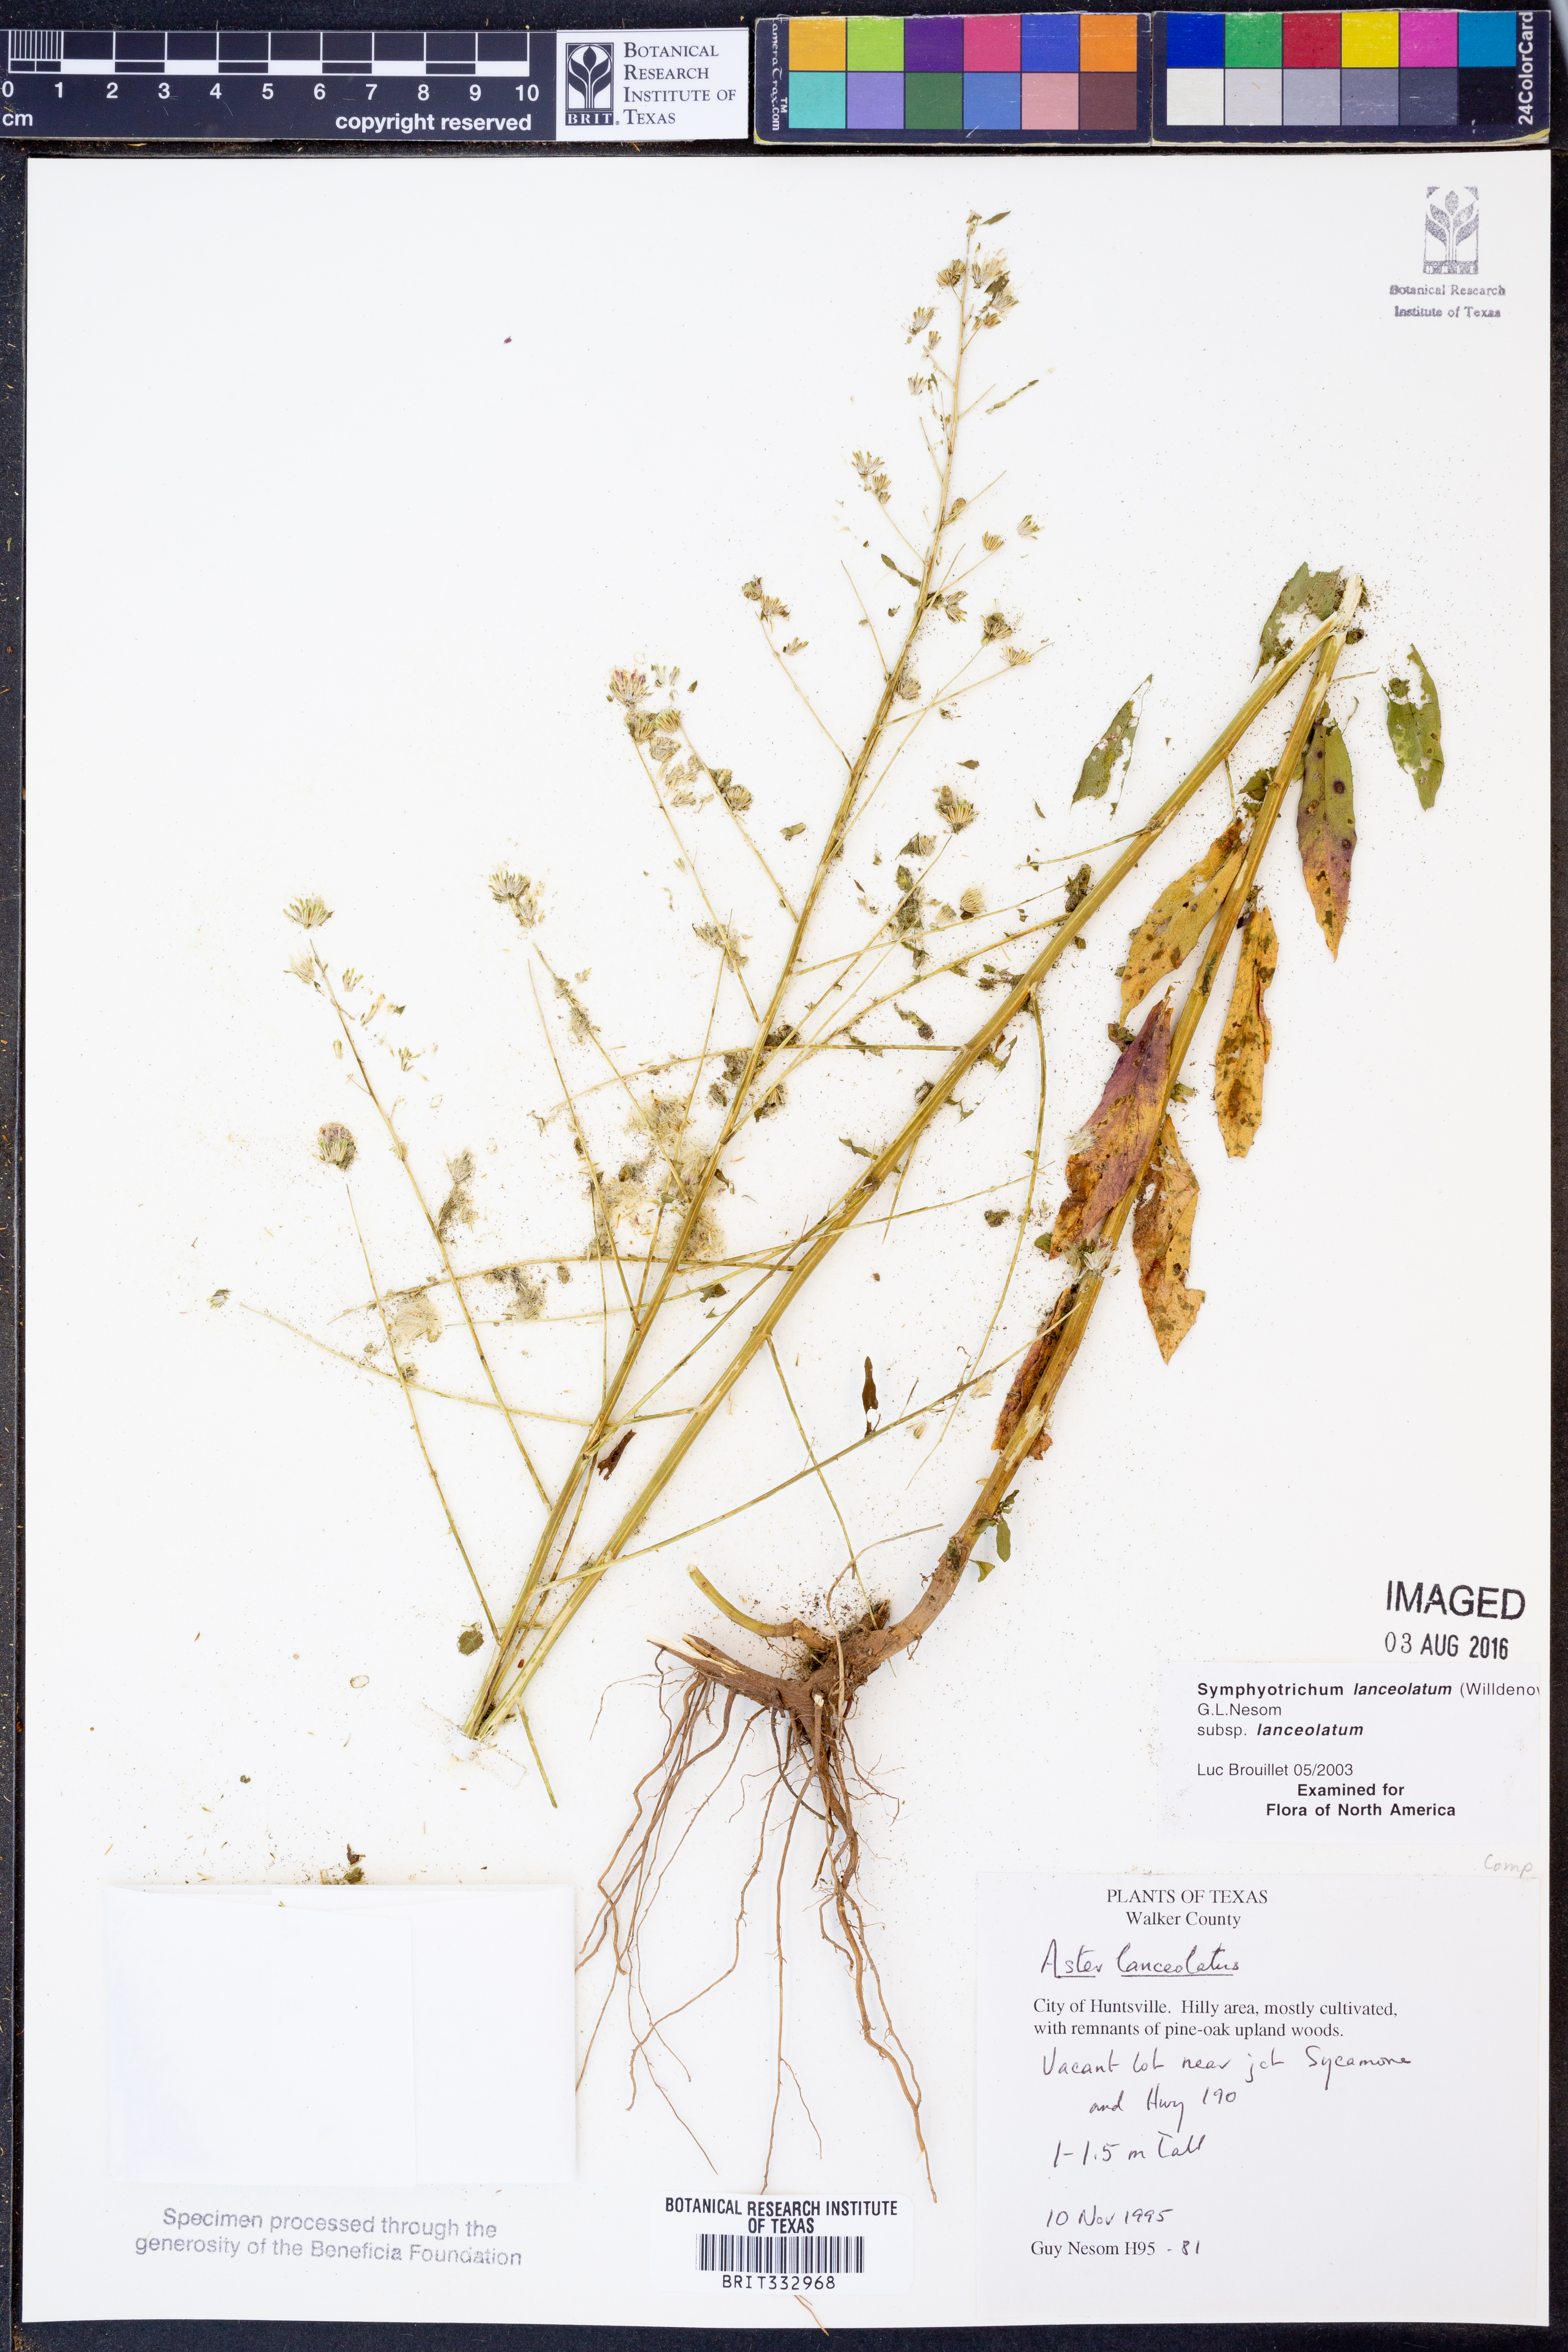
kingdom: Plantae
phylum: Tracheophyta
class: Magnoliopsida
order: Asterales
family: Asteraceae
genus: Symphyotrichum
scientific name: Symphyotrichum lanceolatum
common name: Panicled aster
